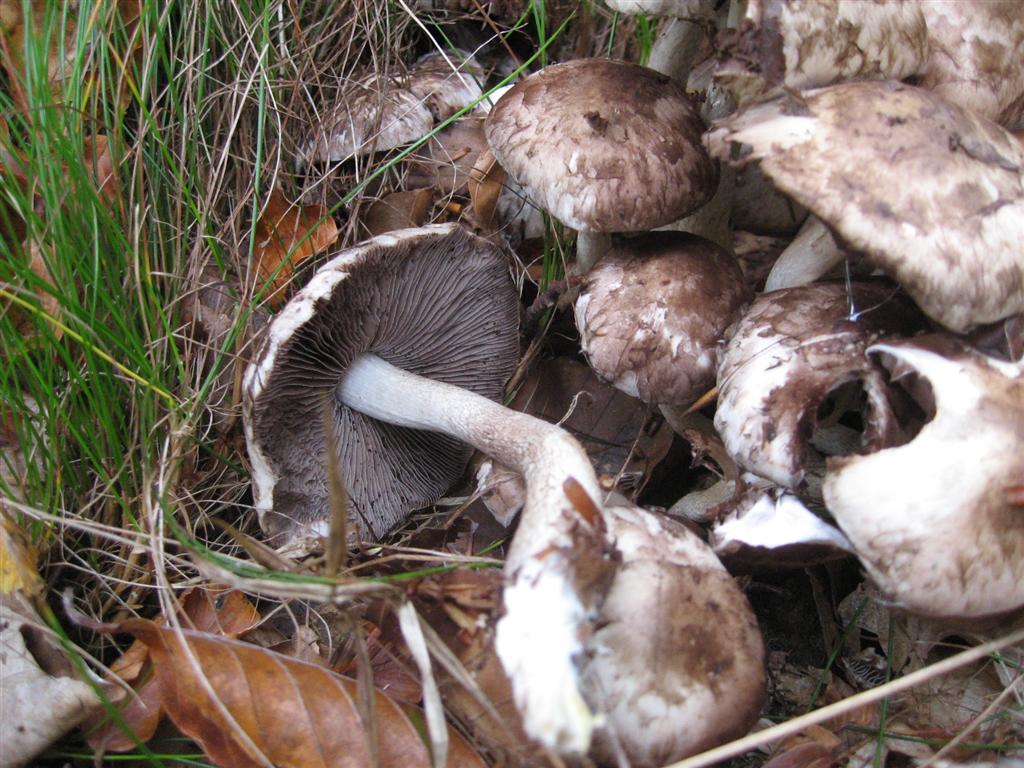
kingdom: Fungi
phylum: Basidiomycota
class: Agaricomycetes
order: Agaricales
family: Psathyrellaceae
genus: Psathyrella
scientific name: Psathyrella cotonea
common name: skællet mørkhat
